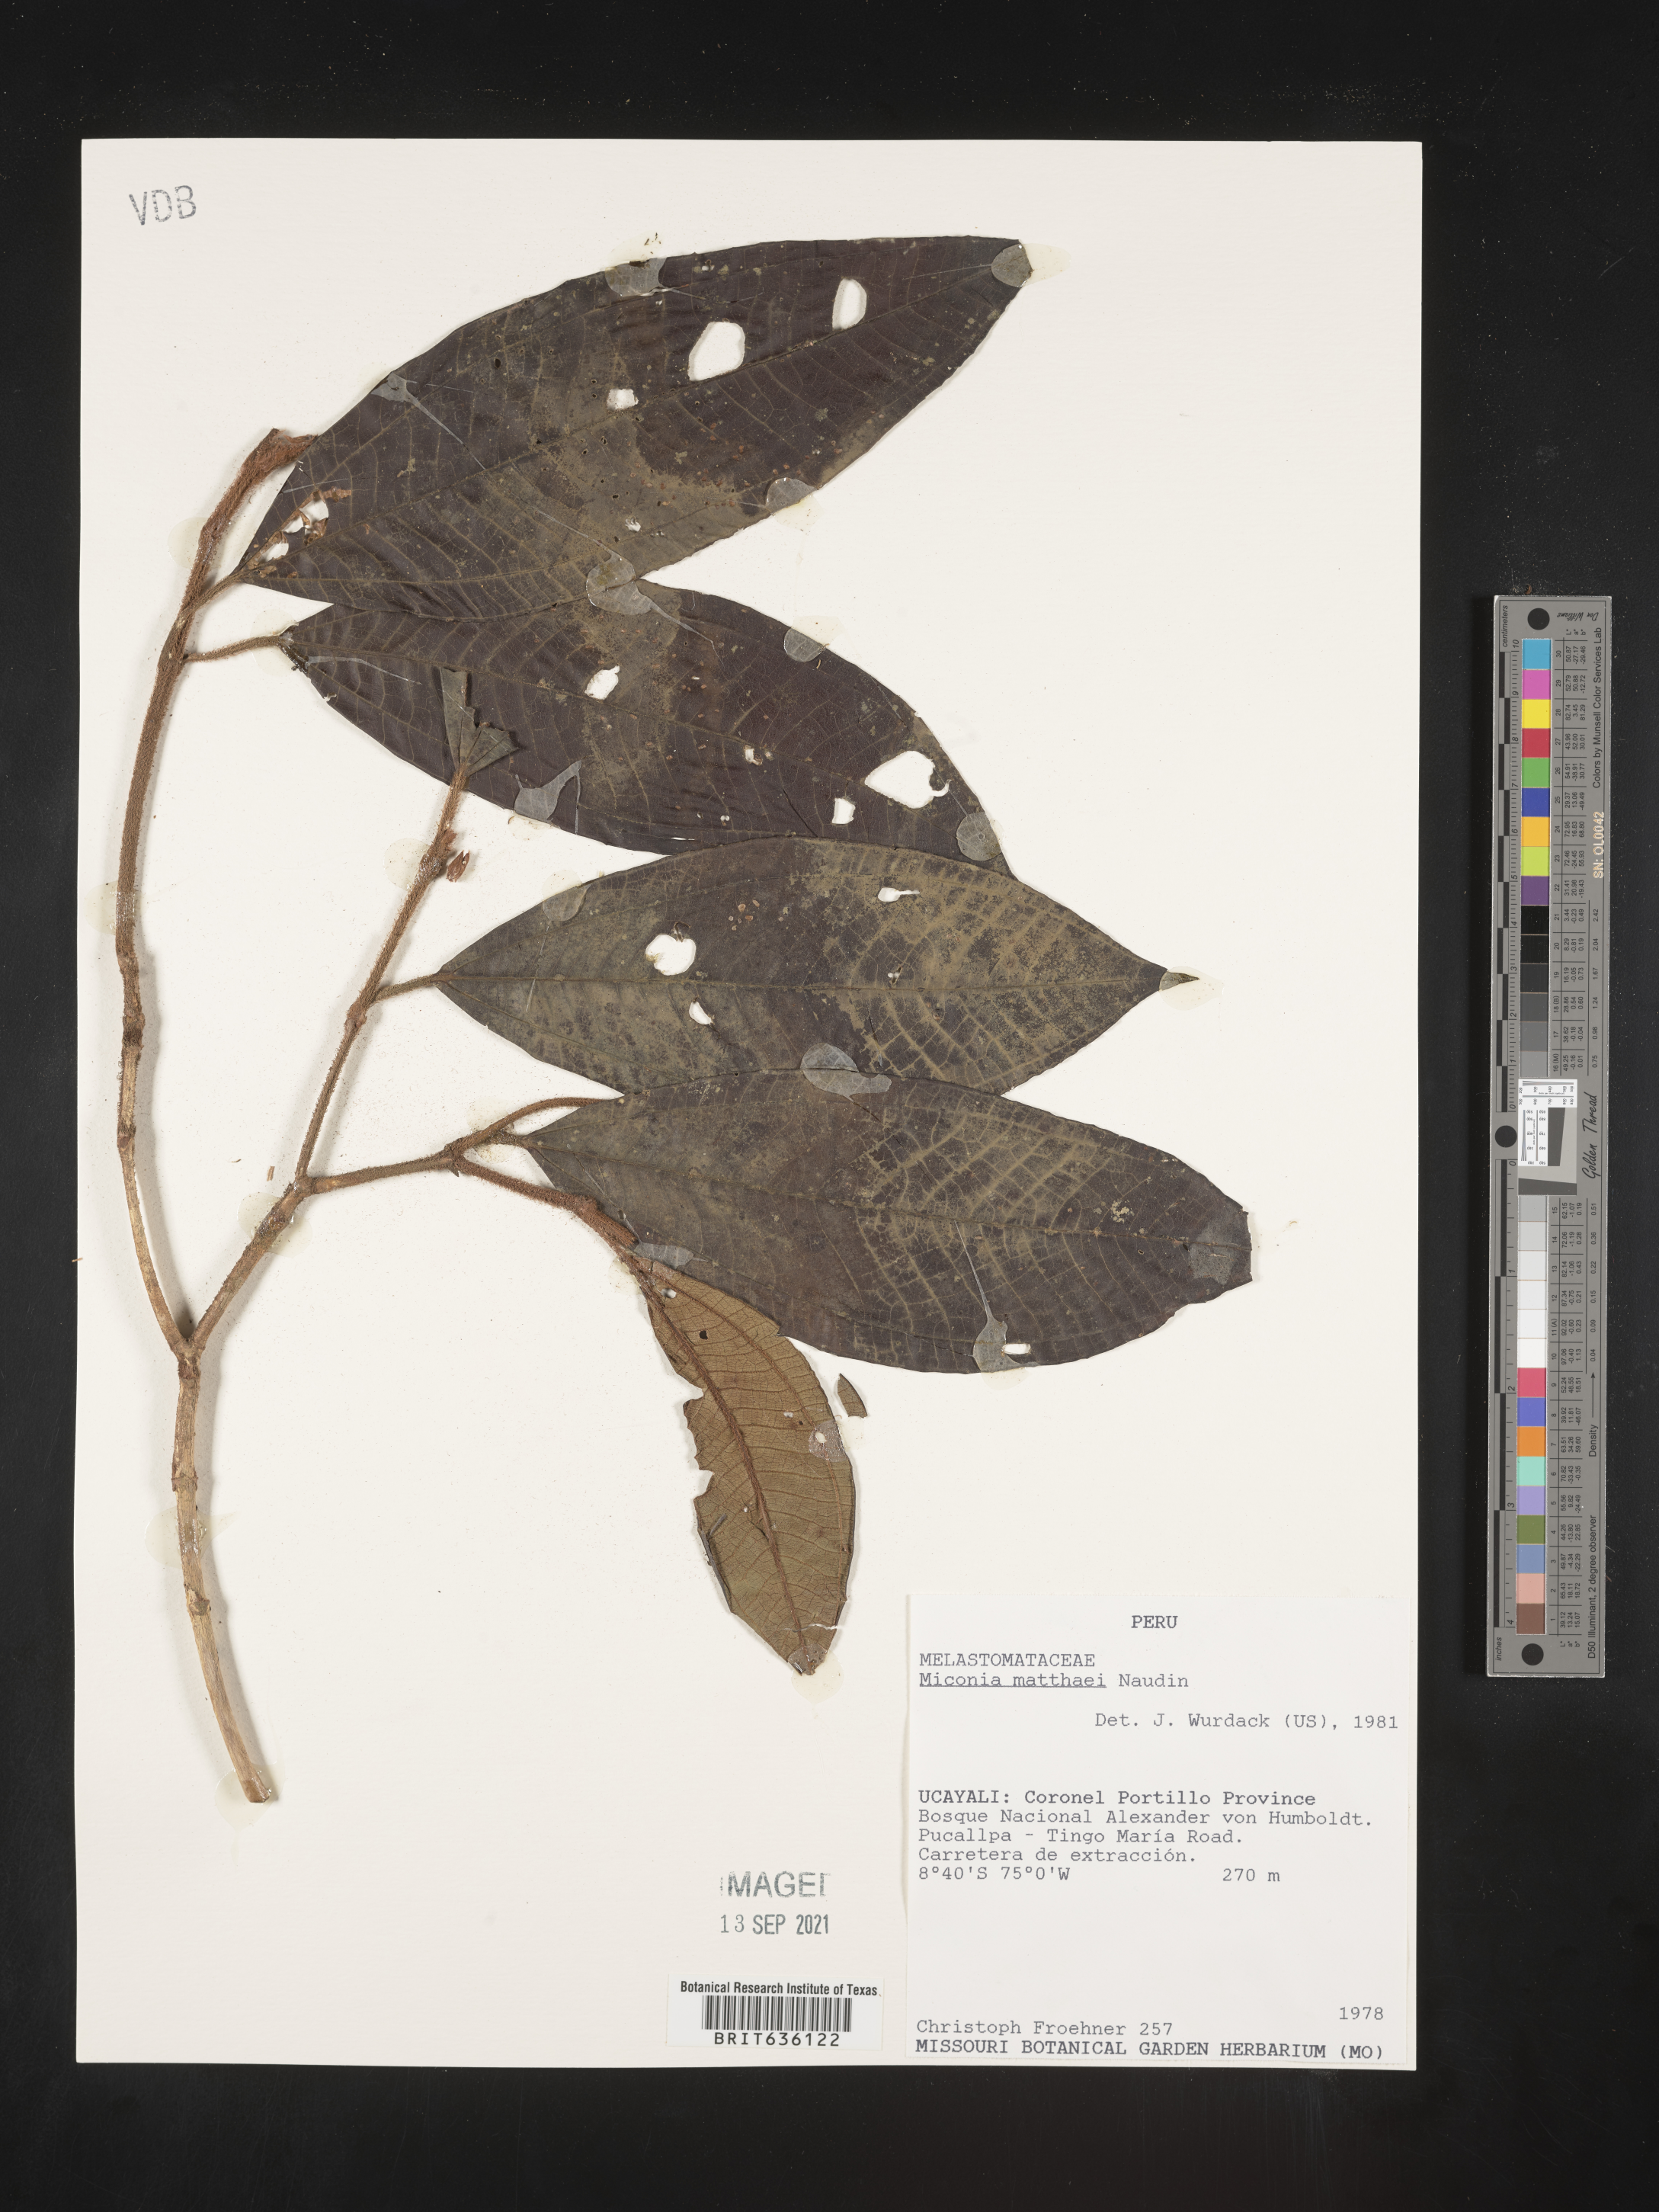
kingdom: Plantae
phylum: Tracheophyta
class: Magnoliopsida
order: Myrtales
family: Melastomataceae
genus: Miconia
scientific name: Miconia
